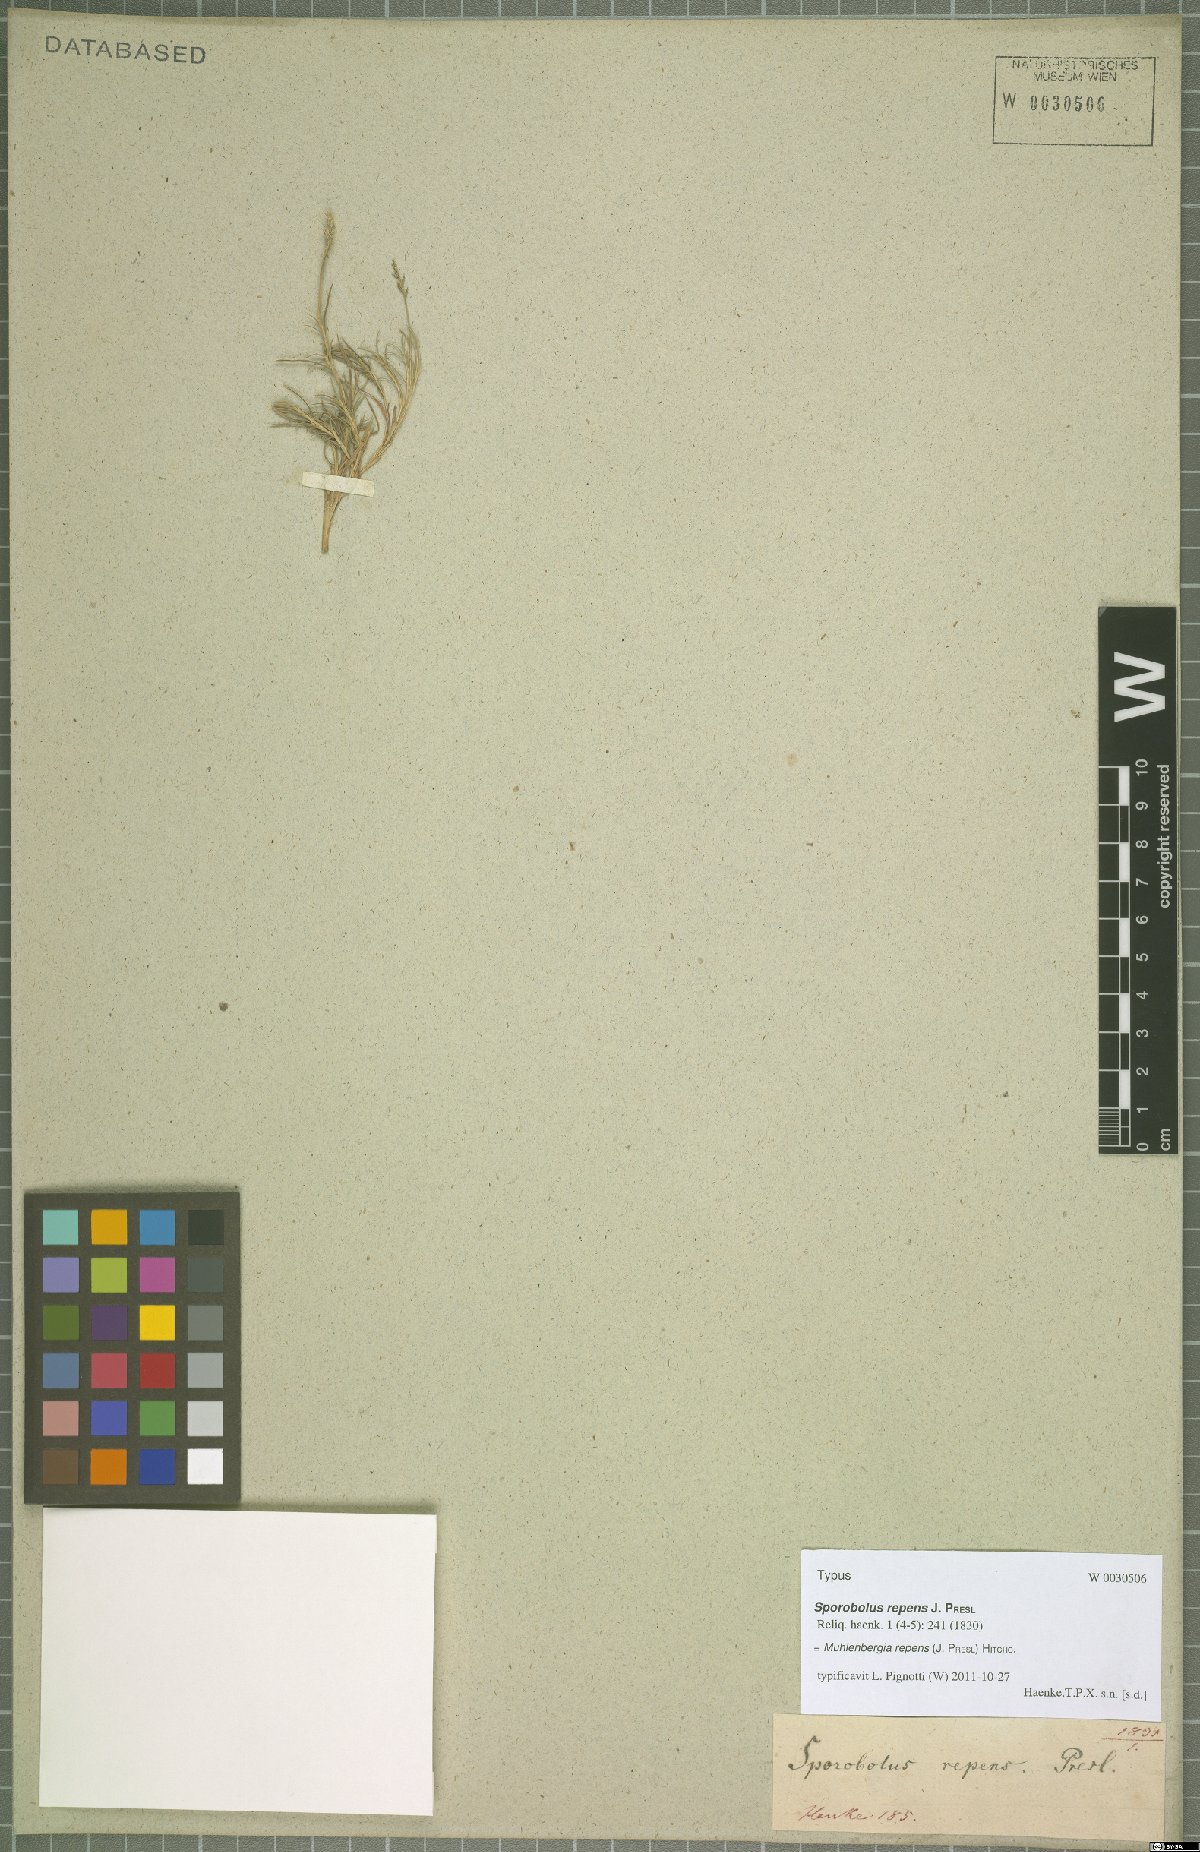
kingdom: Plantae
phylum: Tracheophyta
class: Liliopsida
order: Poales
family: Poaceae
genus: Muhlenbergia
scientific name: Muhlenbergia repens
